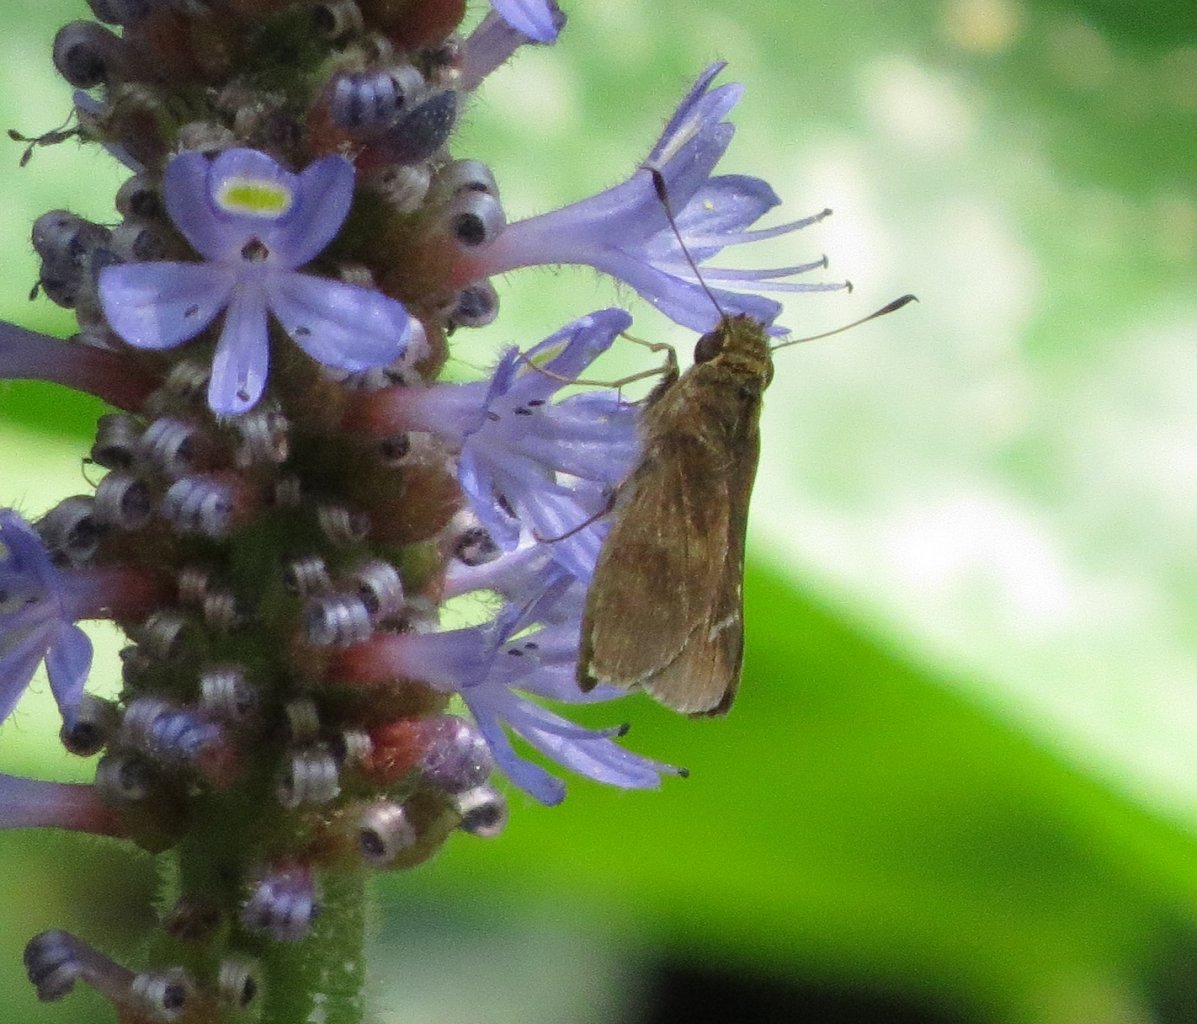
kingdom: Animalia
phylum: Arthropoda
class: Insecta
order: Lepidoptera
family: Hesperiidae
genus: Lerema
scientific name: Lerema accius
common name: Clouded Skipper
